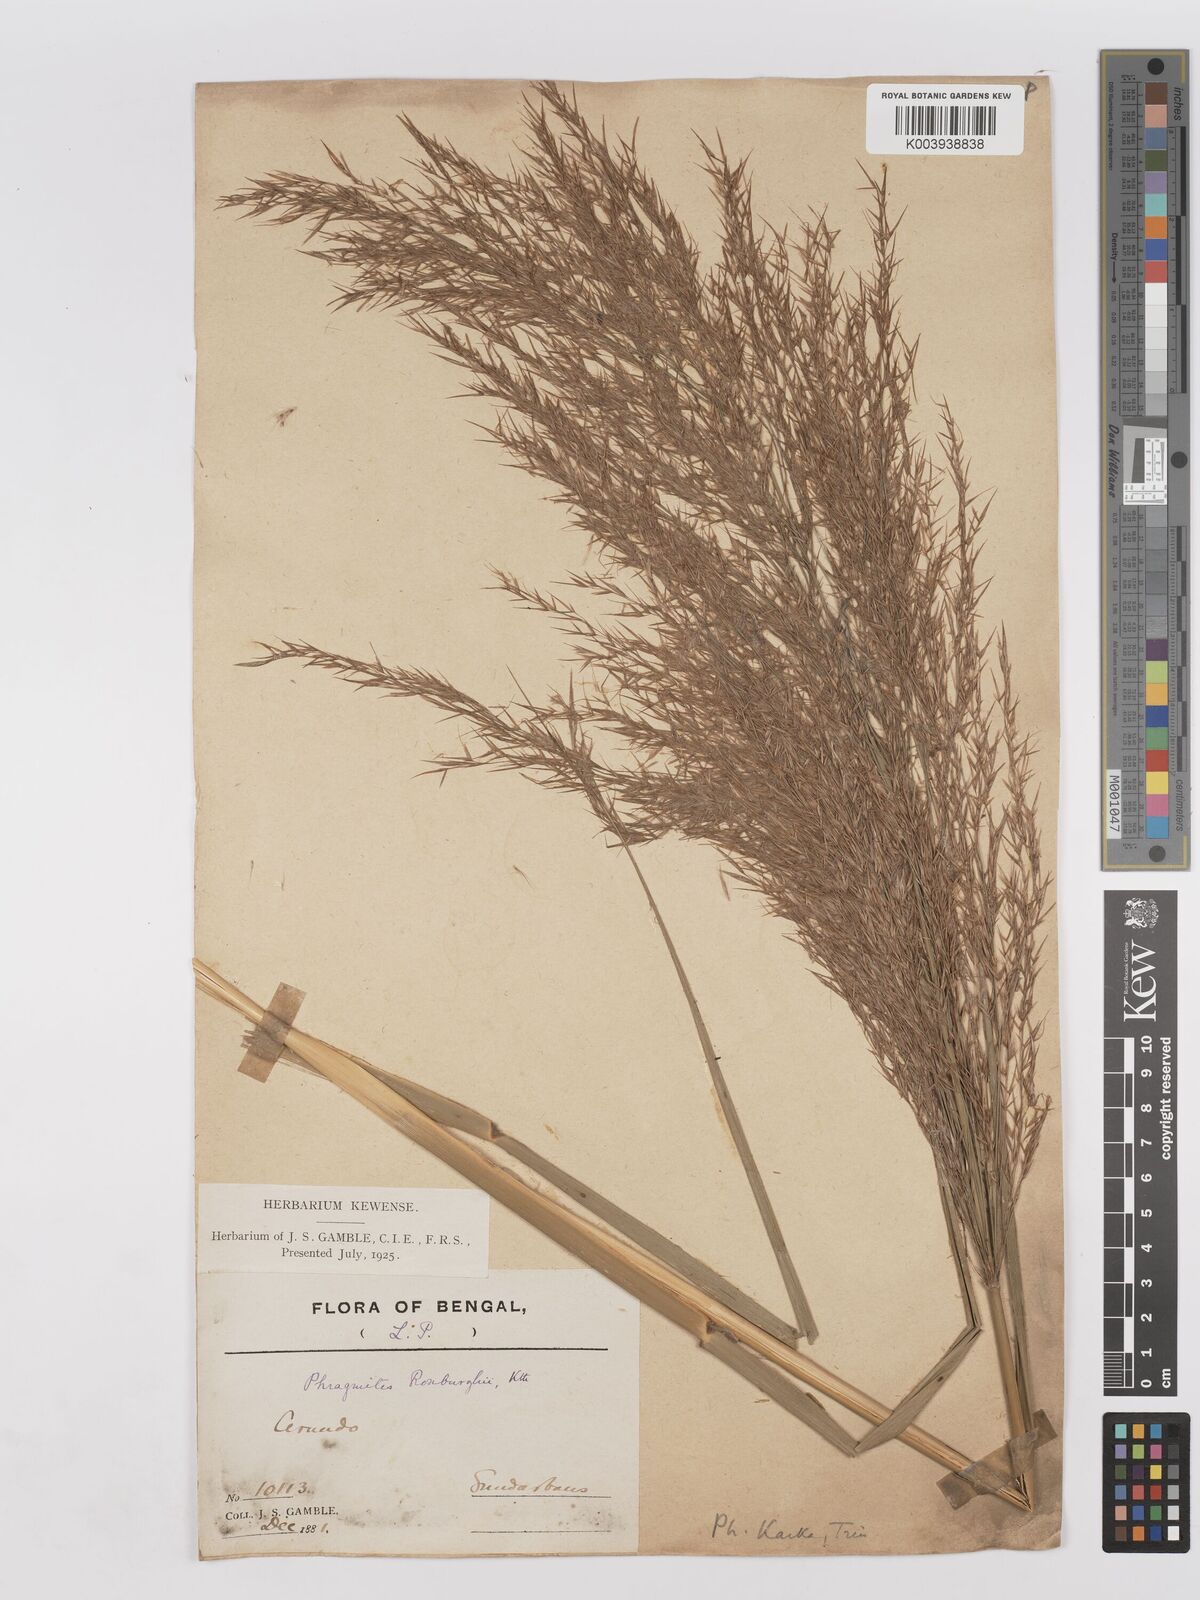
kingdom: Plantae
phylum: Tracheophyta
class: Liliopsida
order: Poales
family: Poaceae
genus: Phragmites
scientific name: Phragmites karka
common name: Tropical reed
